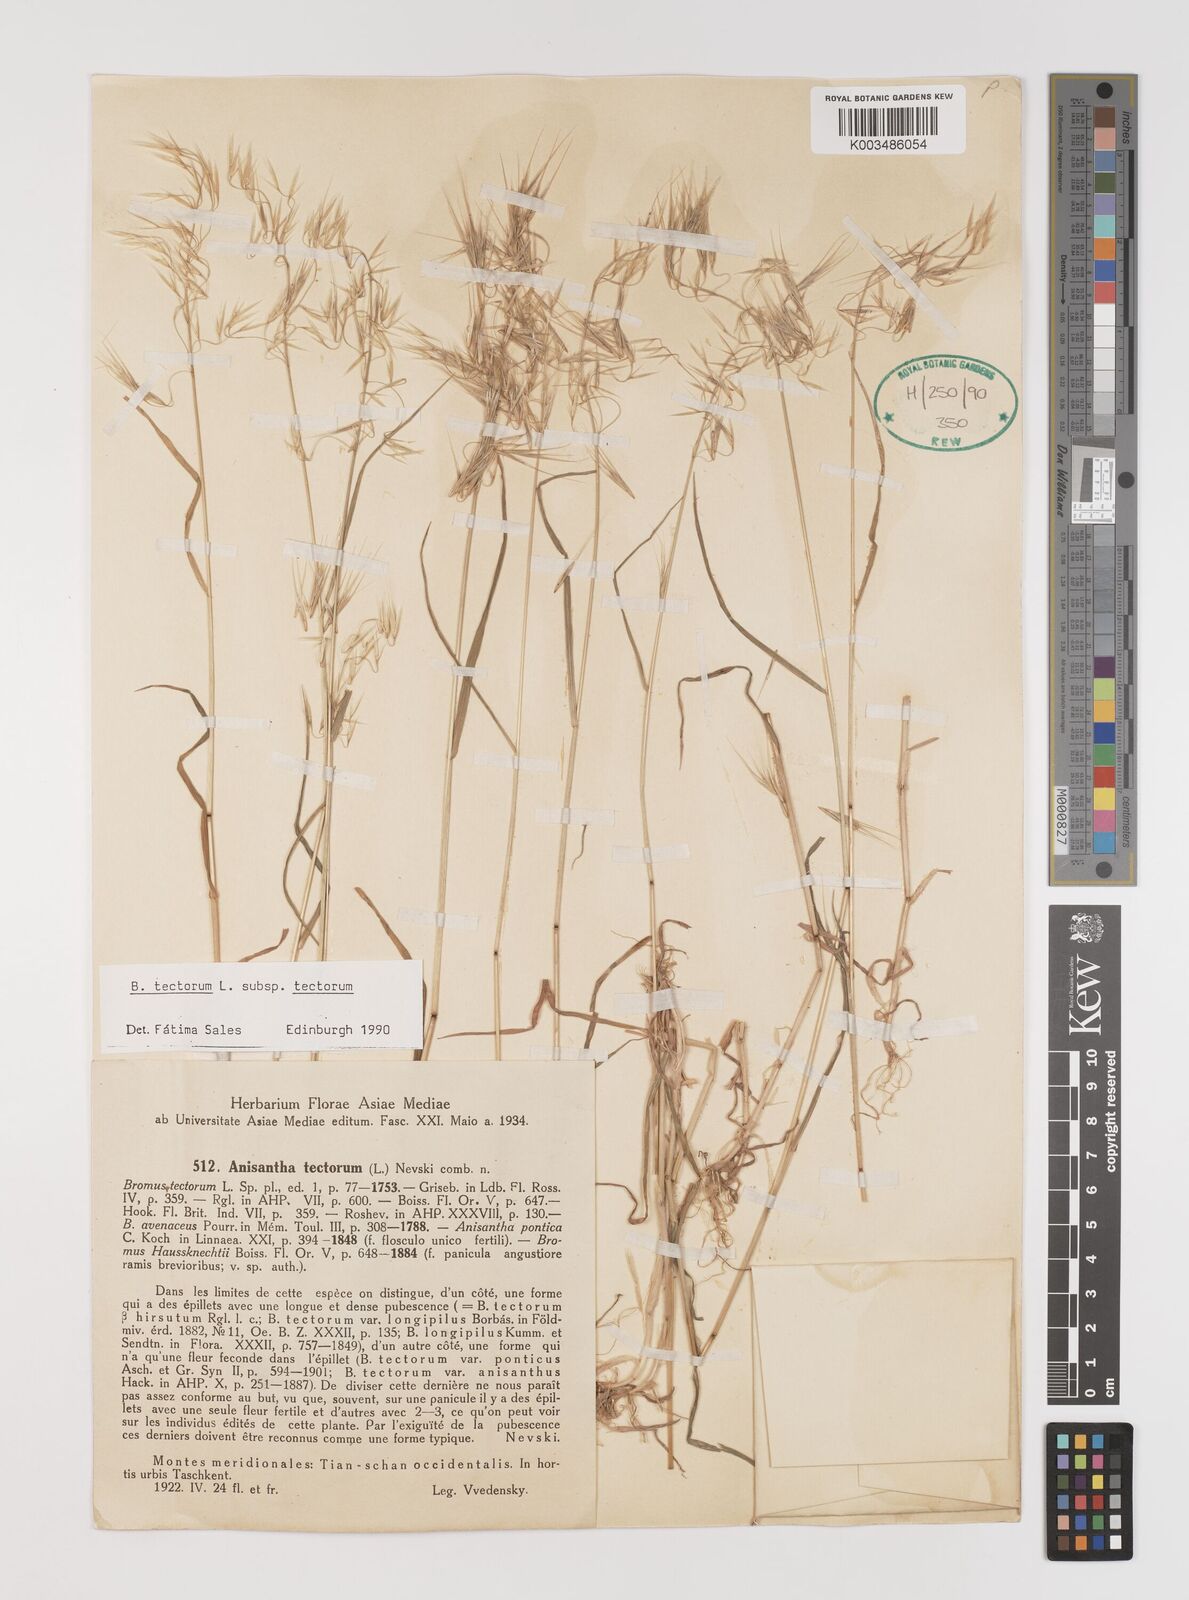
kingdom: Plantae
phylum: Tracheophyta
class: Liliopsida
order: Poales
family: Poaceae
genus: Bromus
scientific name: Bromus tectorum
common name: Cheatgrass
